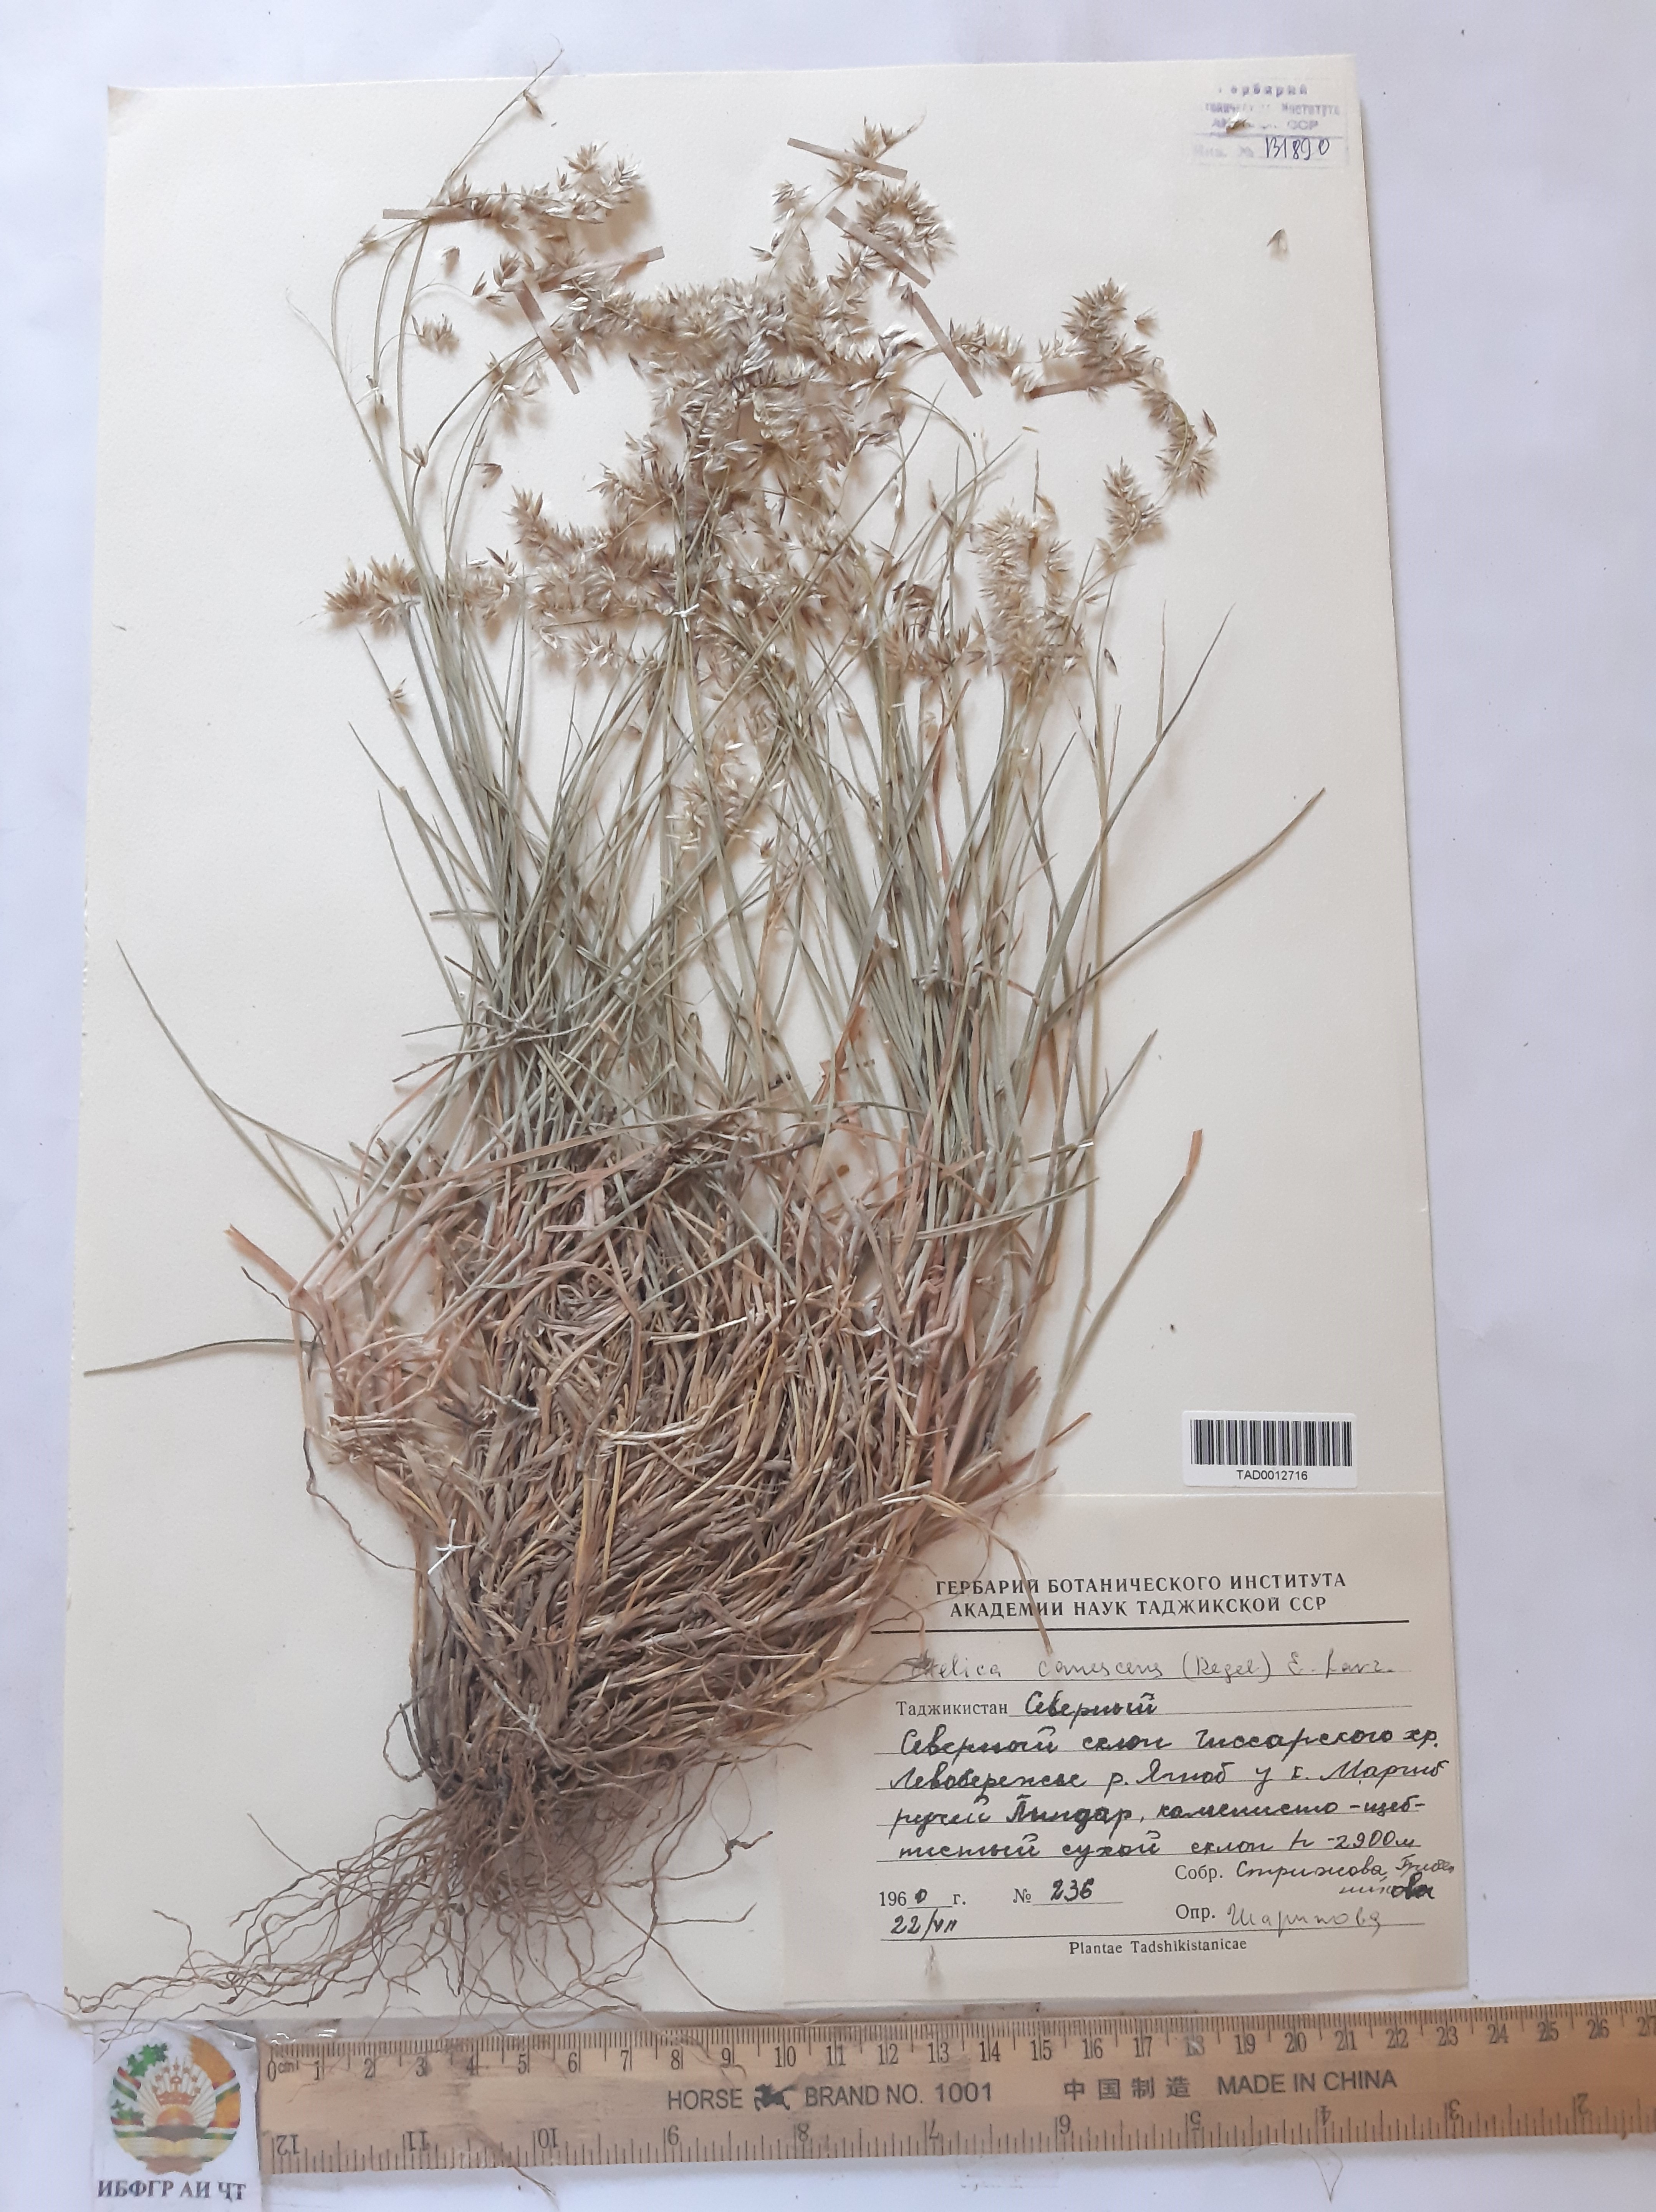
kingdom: Plantae
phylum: Tracheophyta
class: Liliopsida
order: Poales
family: Poaceae
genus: Melica
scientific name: Melica persica
